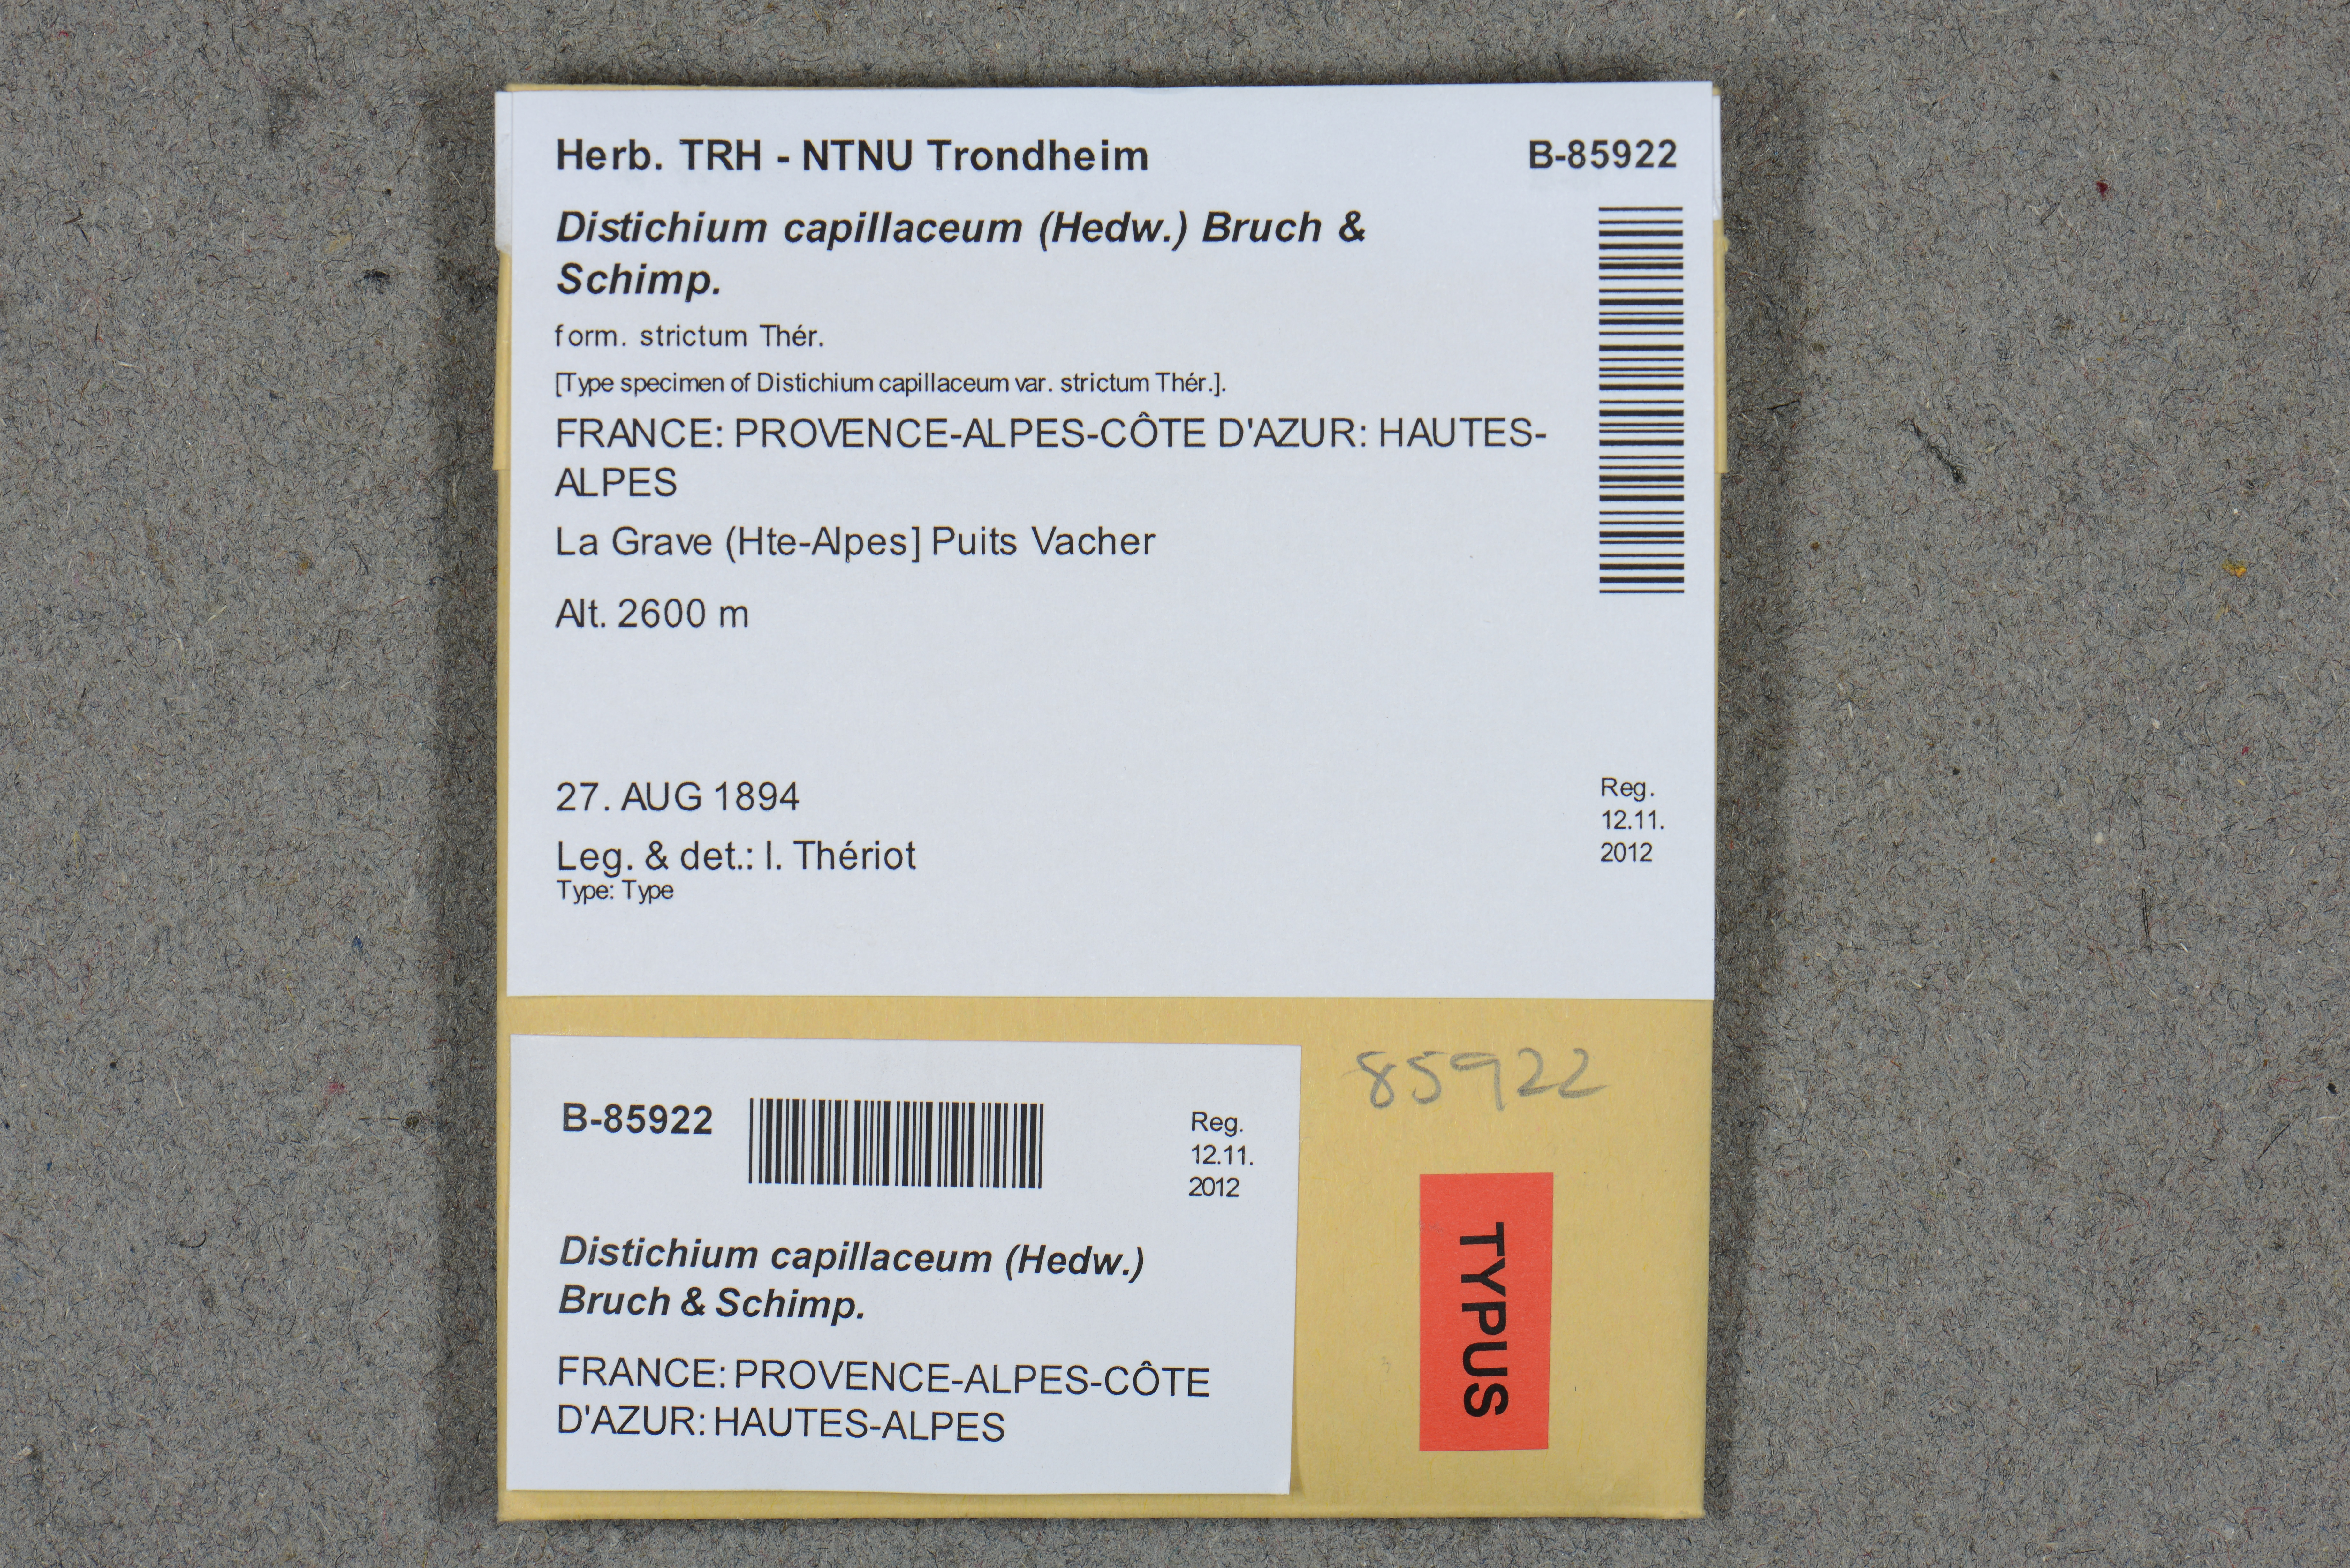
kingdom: Plantae
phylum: Bryophyta
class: Bryopsida
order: Scouleriales
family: Distichiaceae
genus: Distichium
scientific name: Distichium capillaceum
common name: Erect-fruited iris moss
